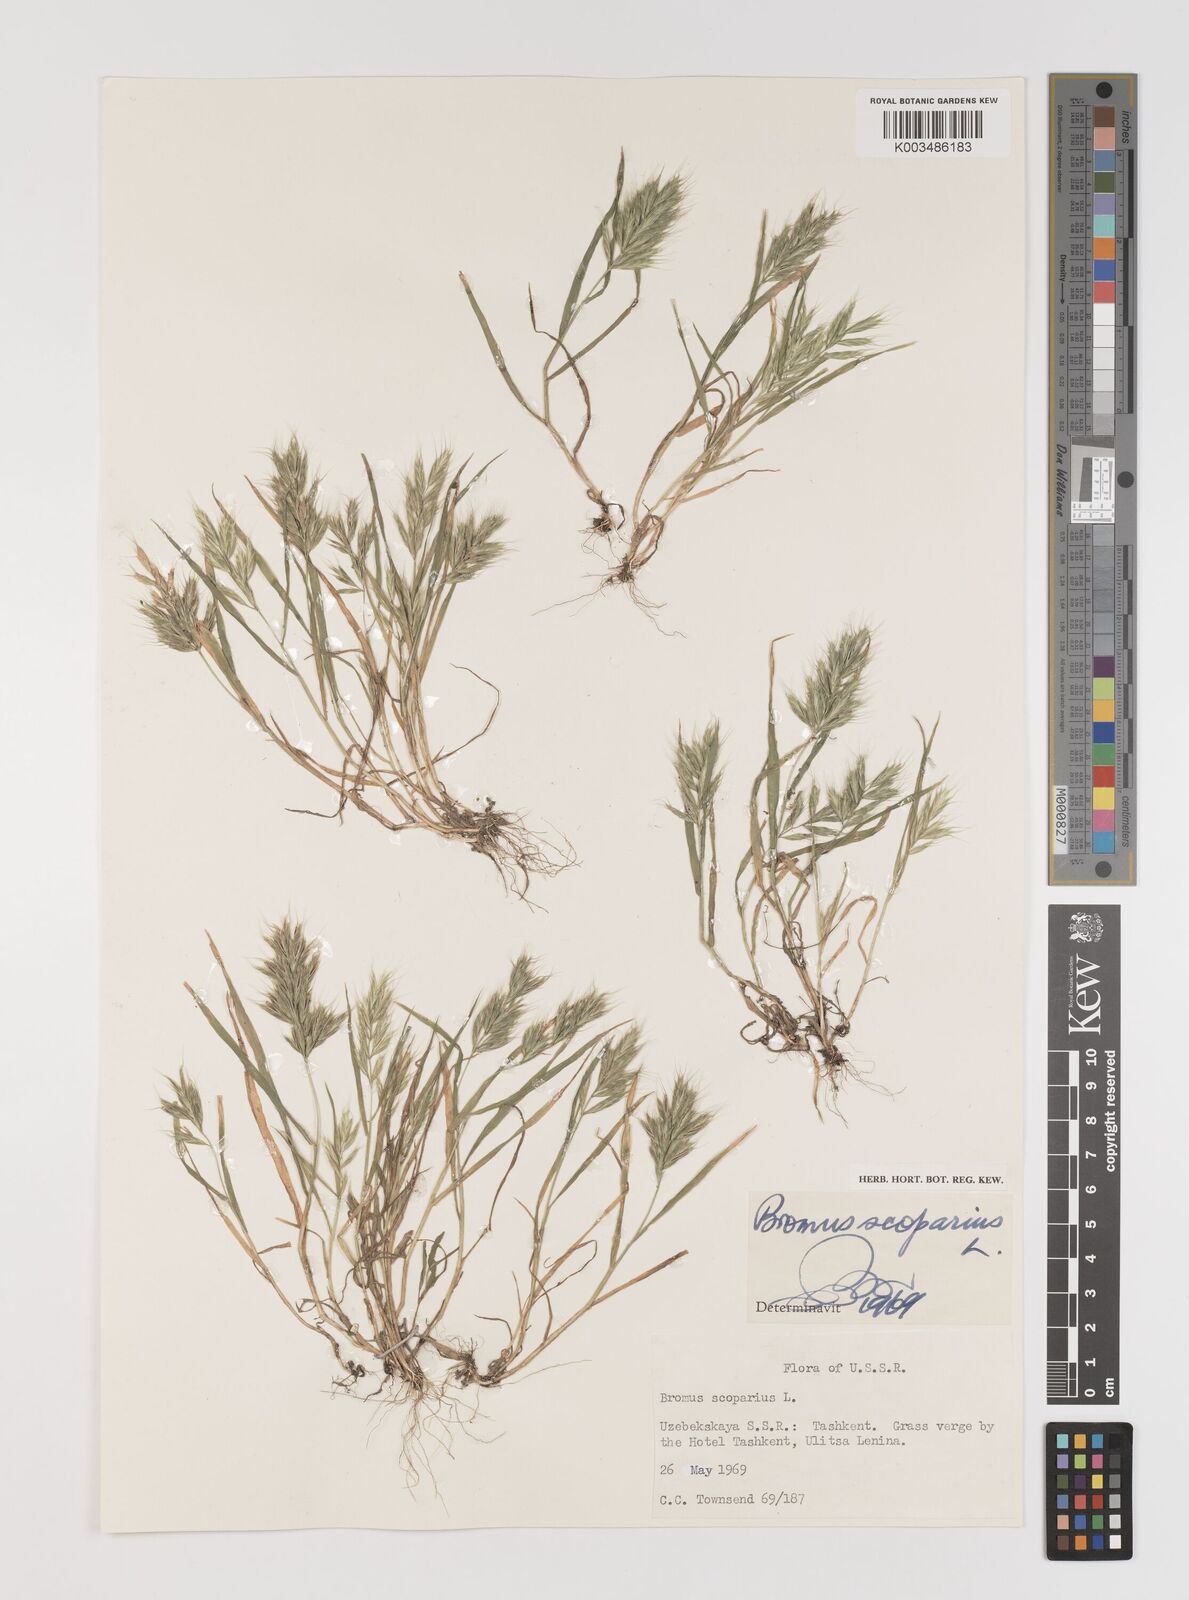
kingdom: Plantae
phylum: Tracheophyta
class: Liliopsida
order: Poales
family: Poaceae
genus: Bromus
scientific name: Bromus scoparius
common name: Broom brome
